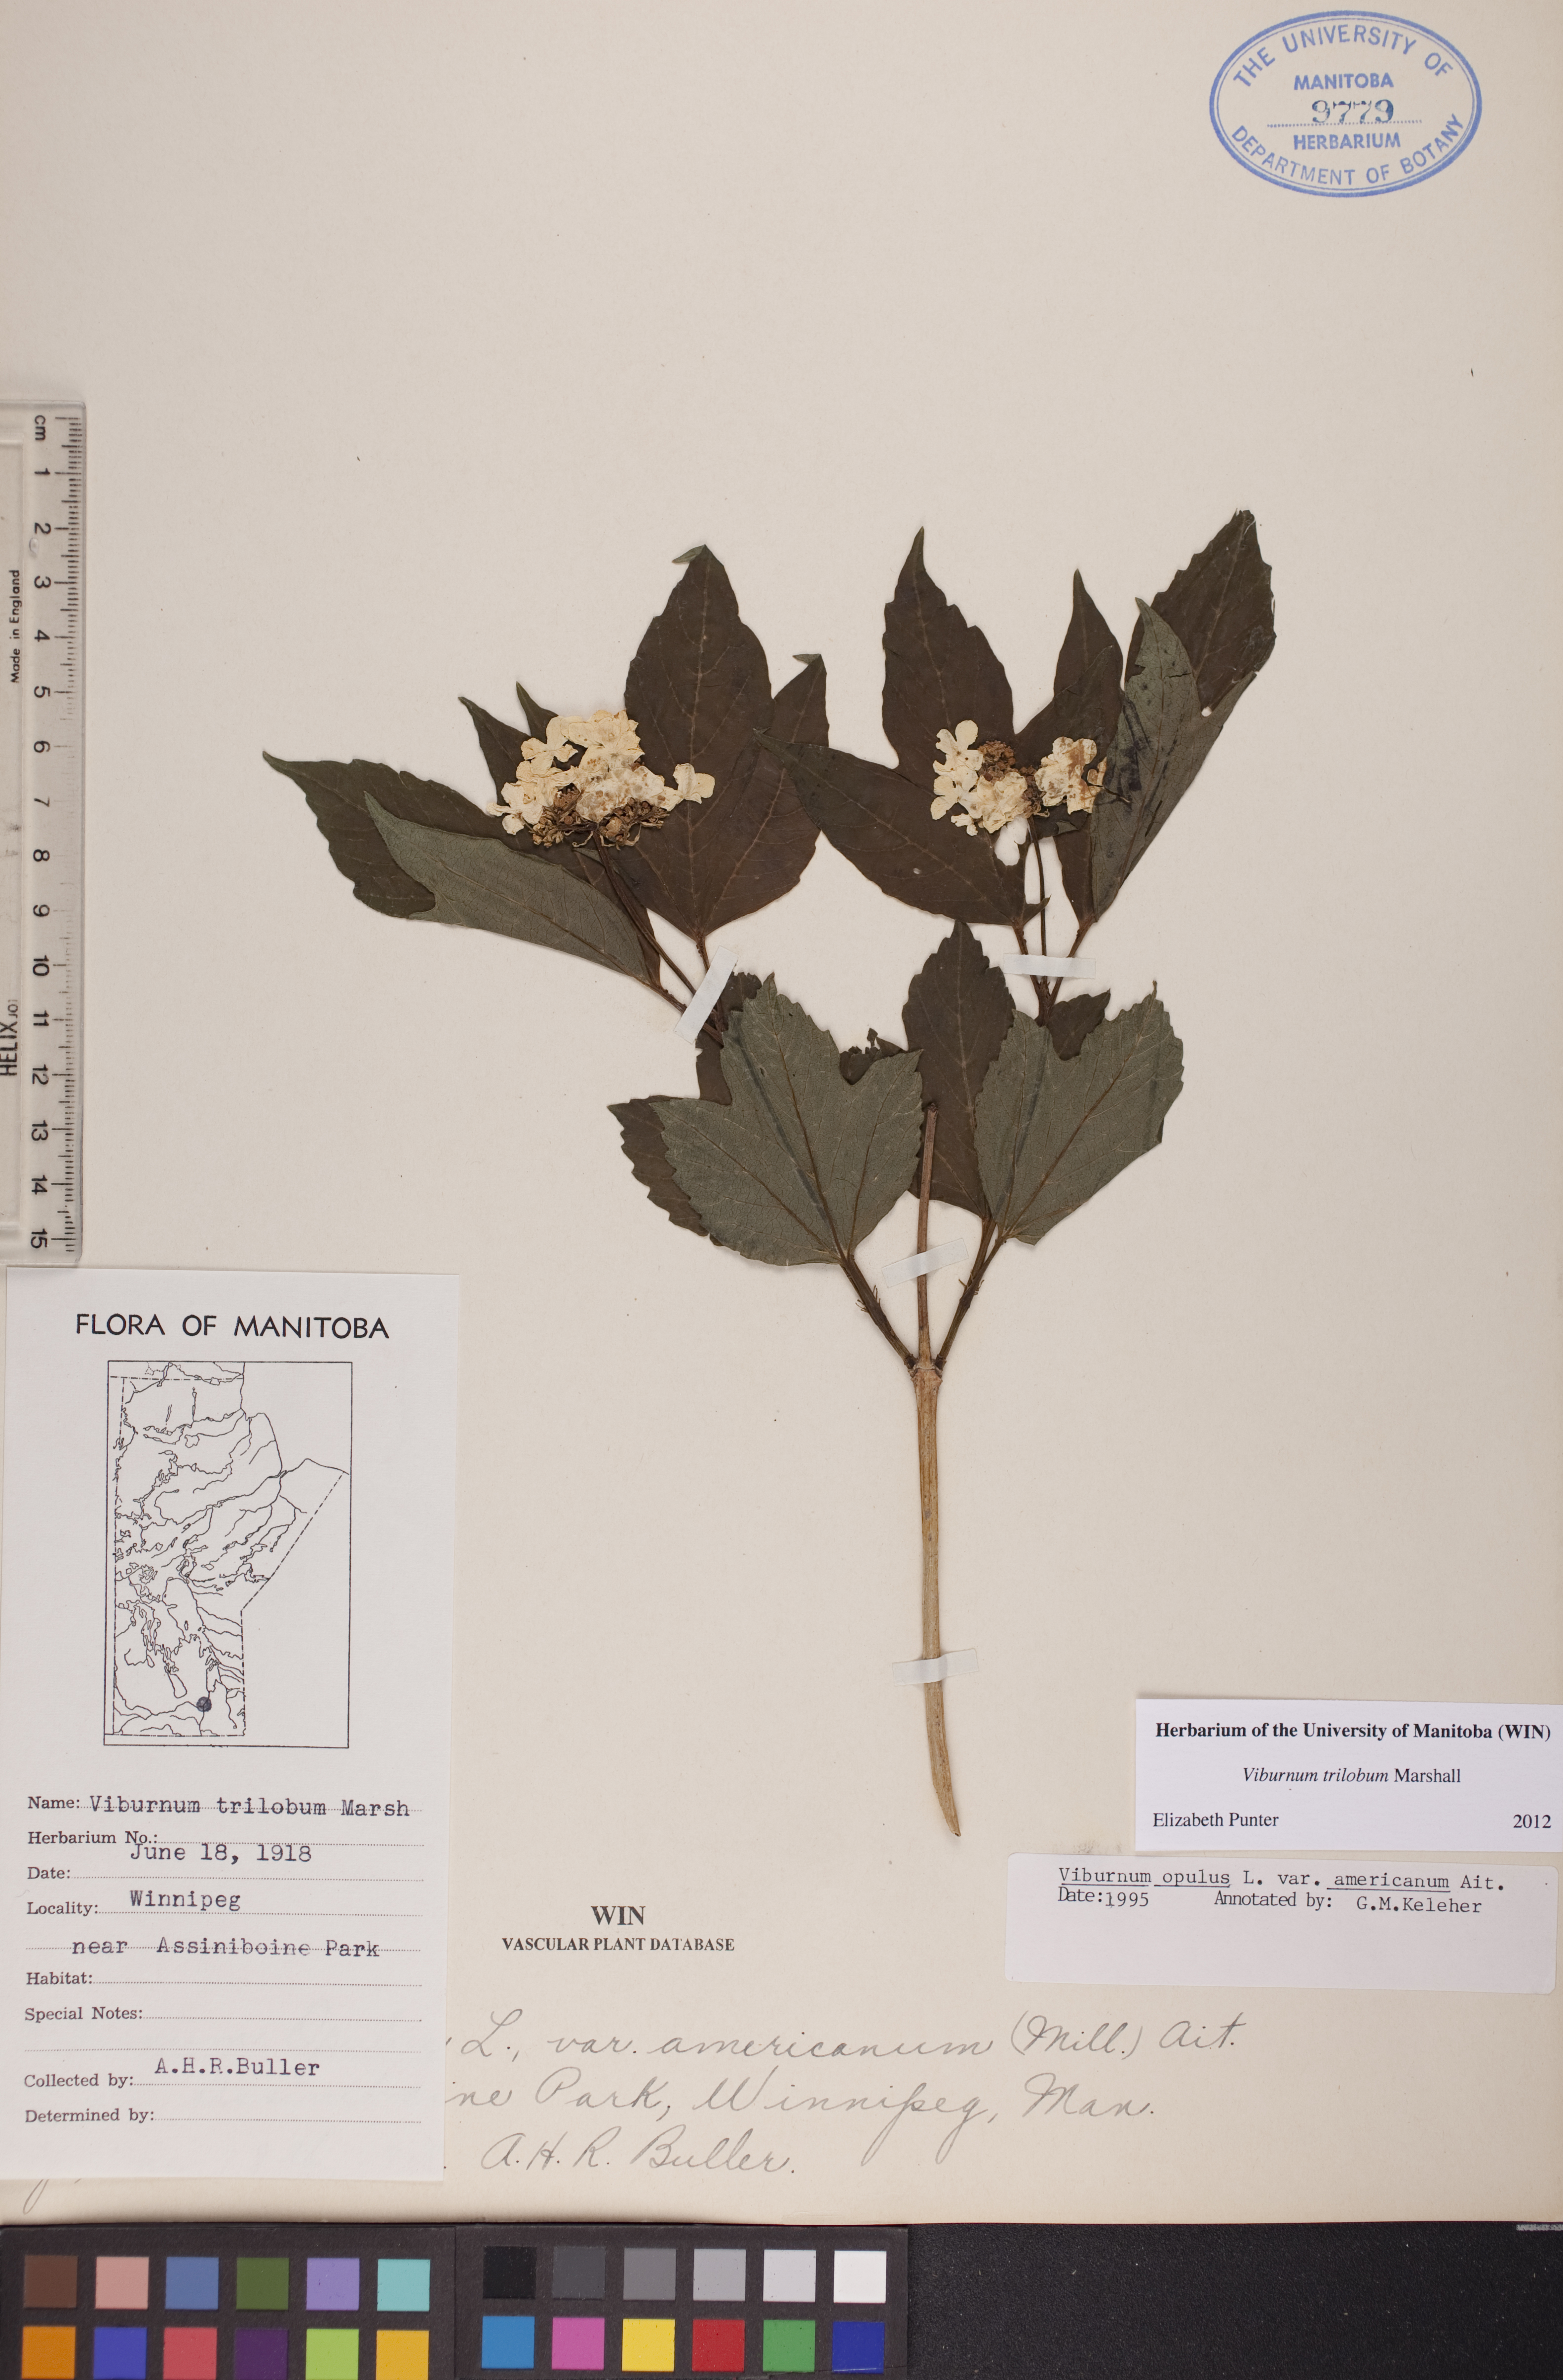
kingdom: Plantae
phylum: Tracheophyta
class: Magnoliopsida
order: Dipsacales
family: Viburnaceae
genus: Viburnum
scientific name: Viburnum trilobum
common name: American cranberrybush
